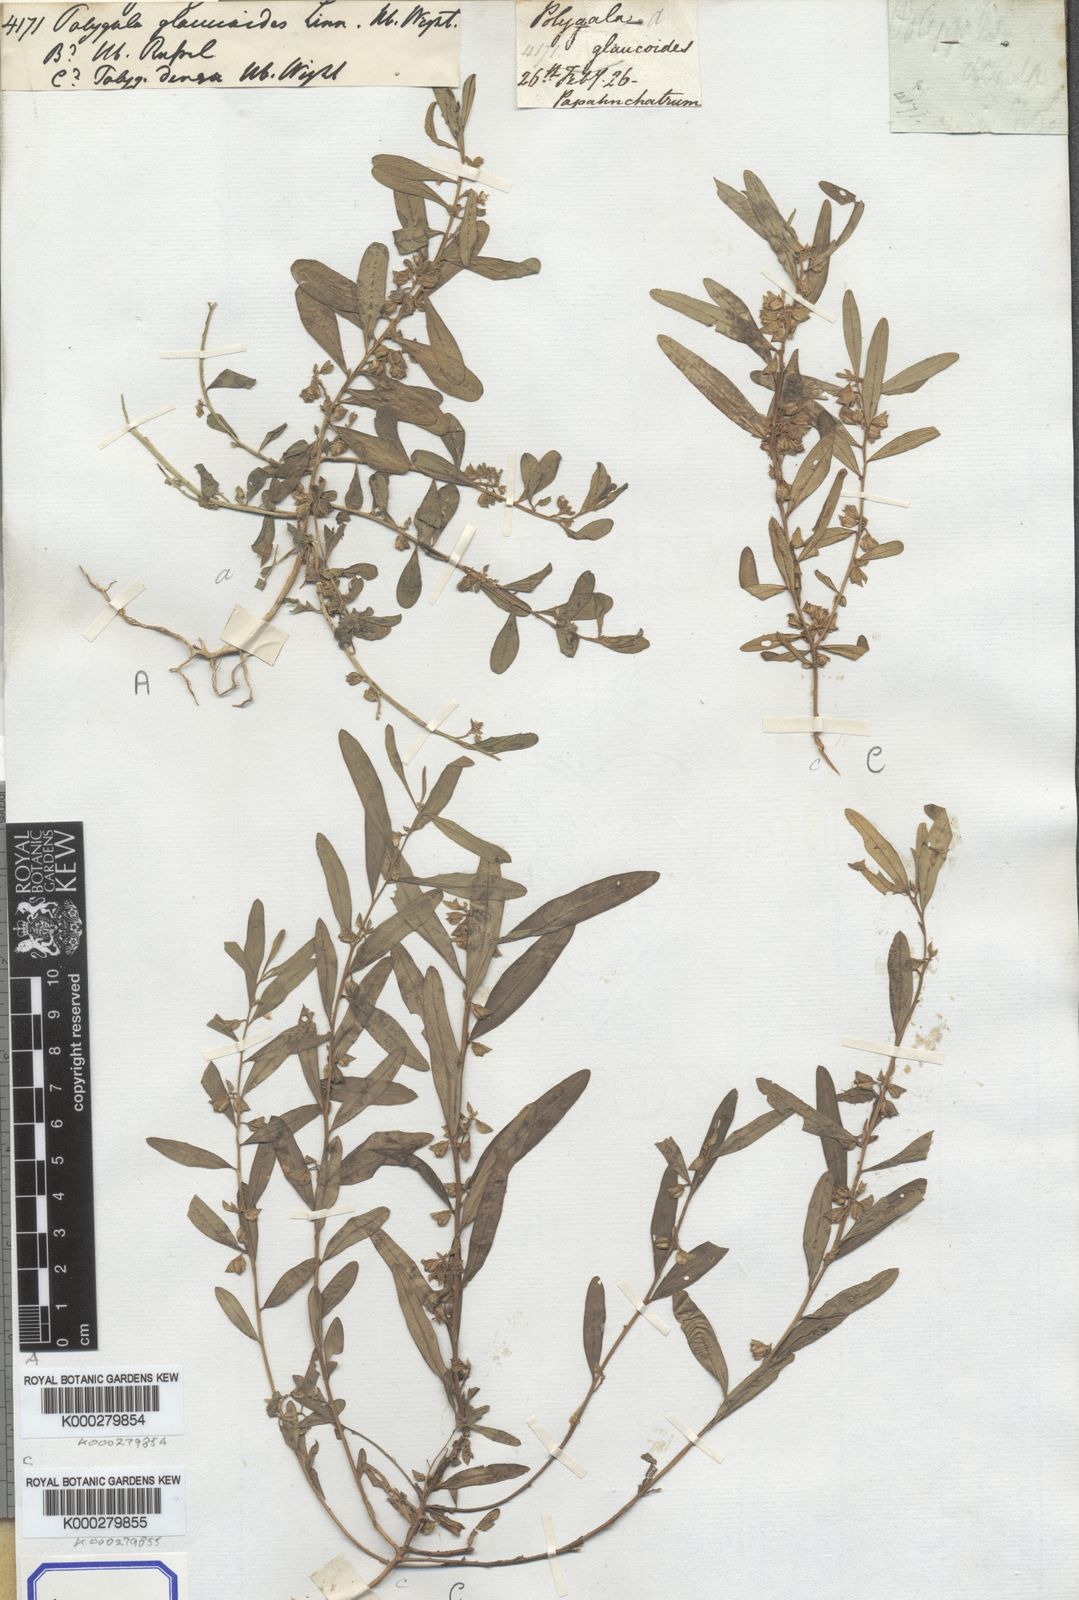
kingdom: Plantae
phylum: Tracheophyta
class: Magnoliopsida
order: Fabales
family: Polygalaceae
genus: Polygala
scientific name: Polygala glaucoides
